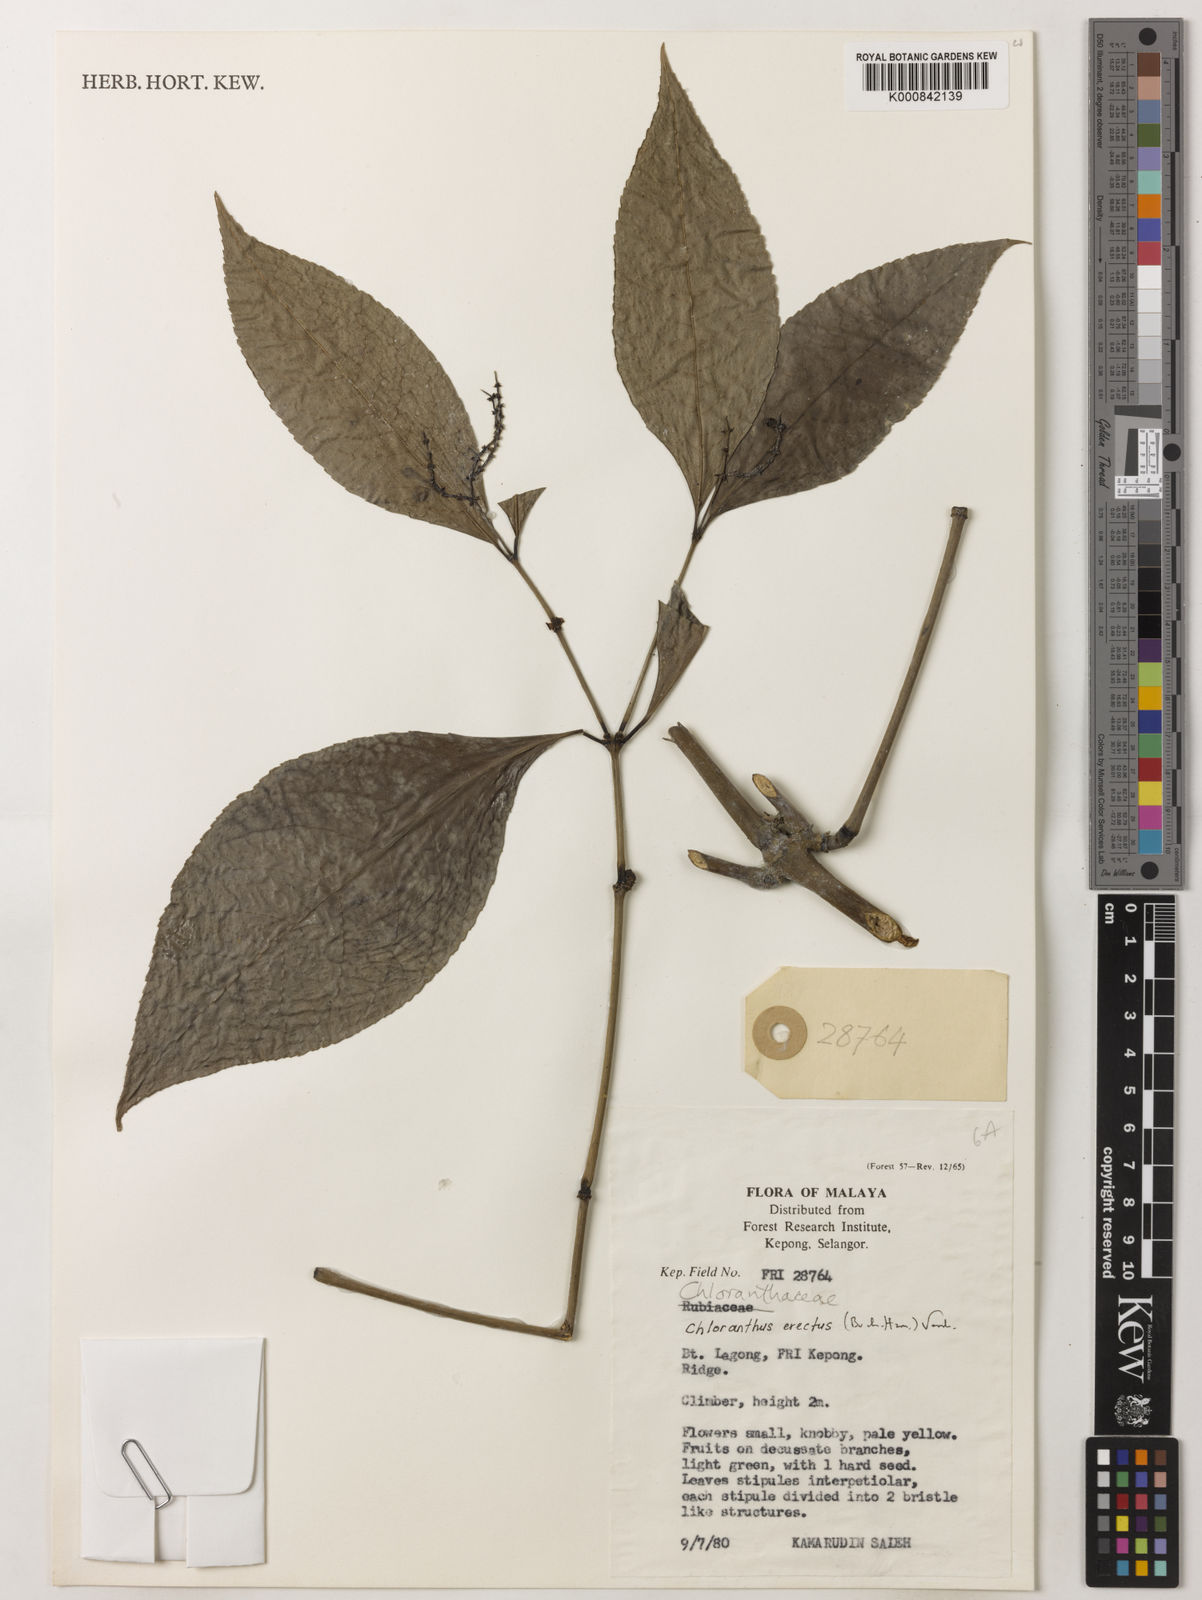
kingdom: Plantae
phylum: Tracheophyta
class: Magnoliopsida
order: Chloranthales
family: Chloranthaceae
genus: Chloranthus
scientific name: Chloranthus
